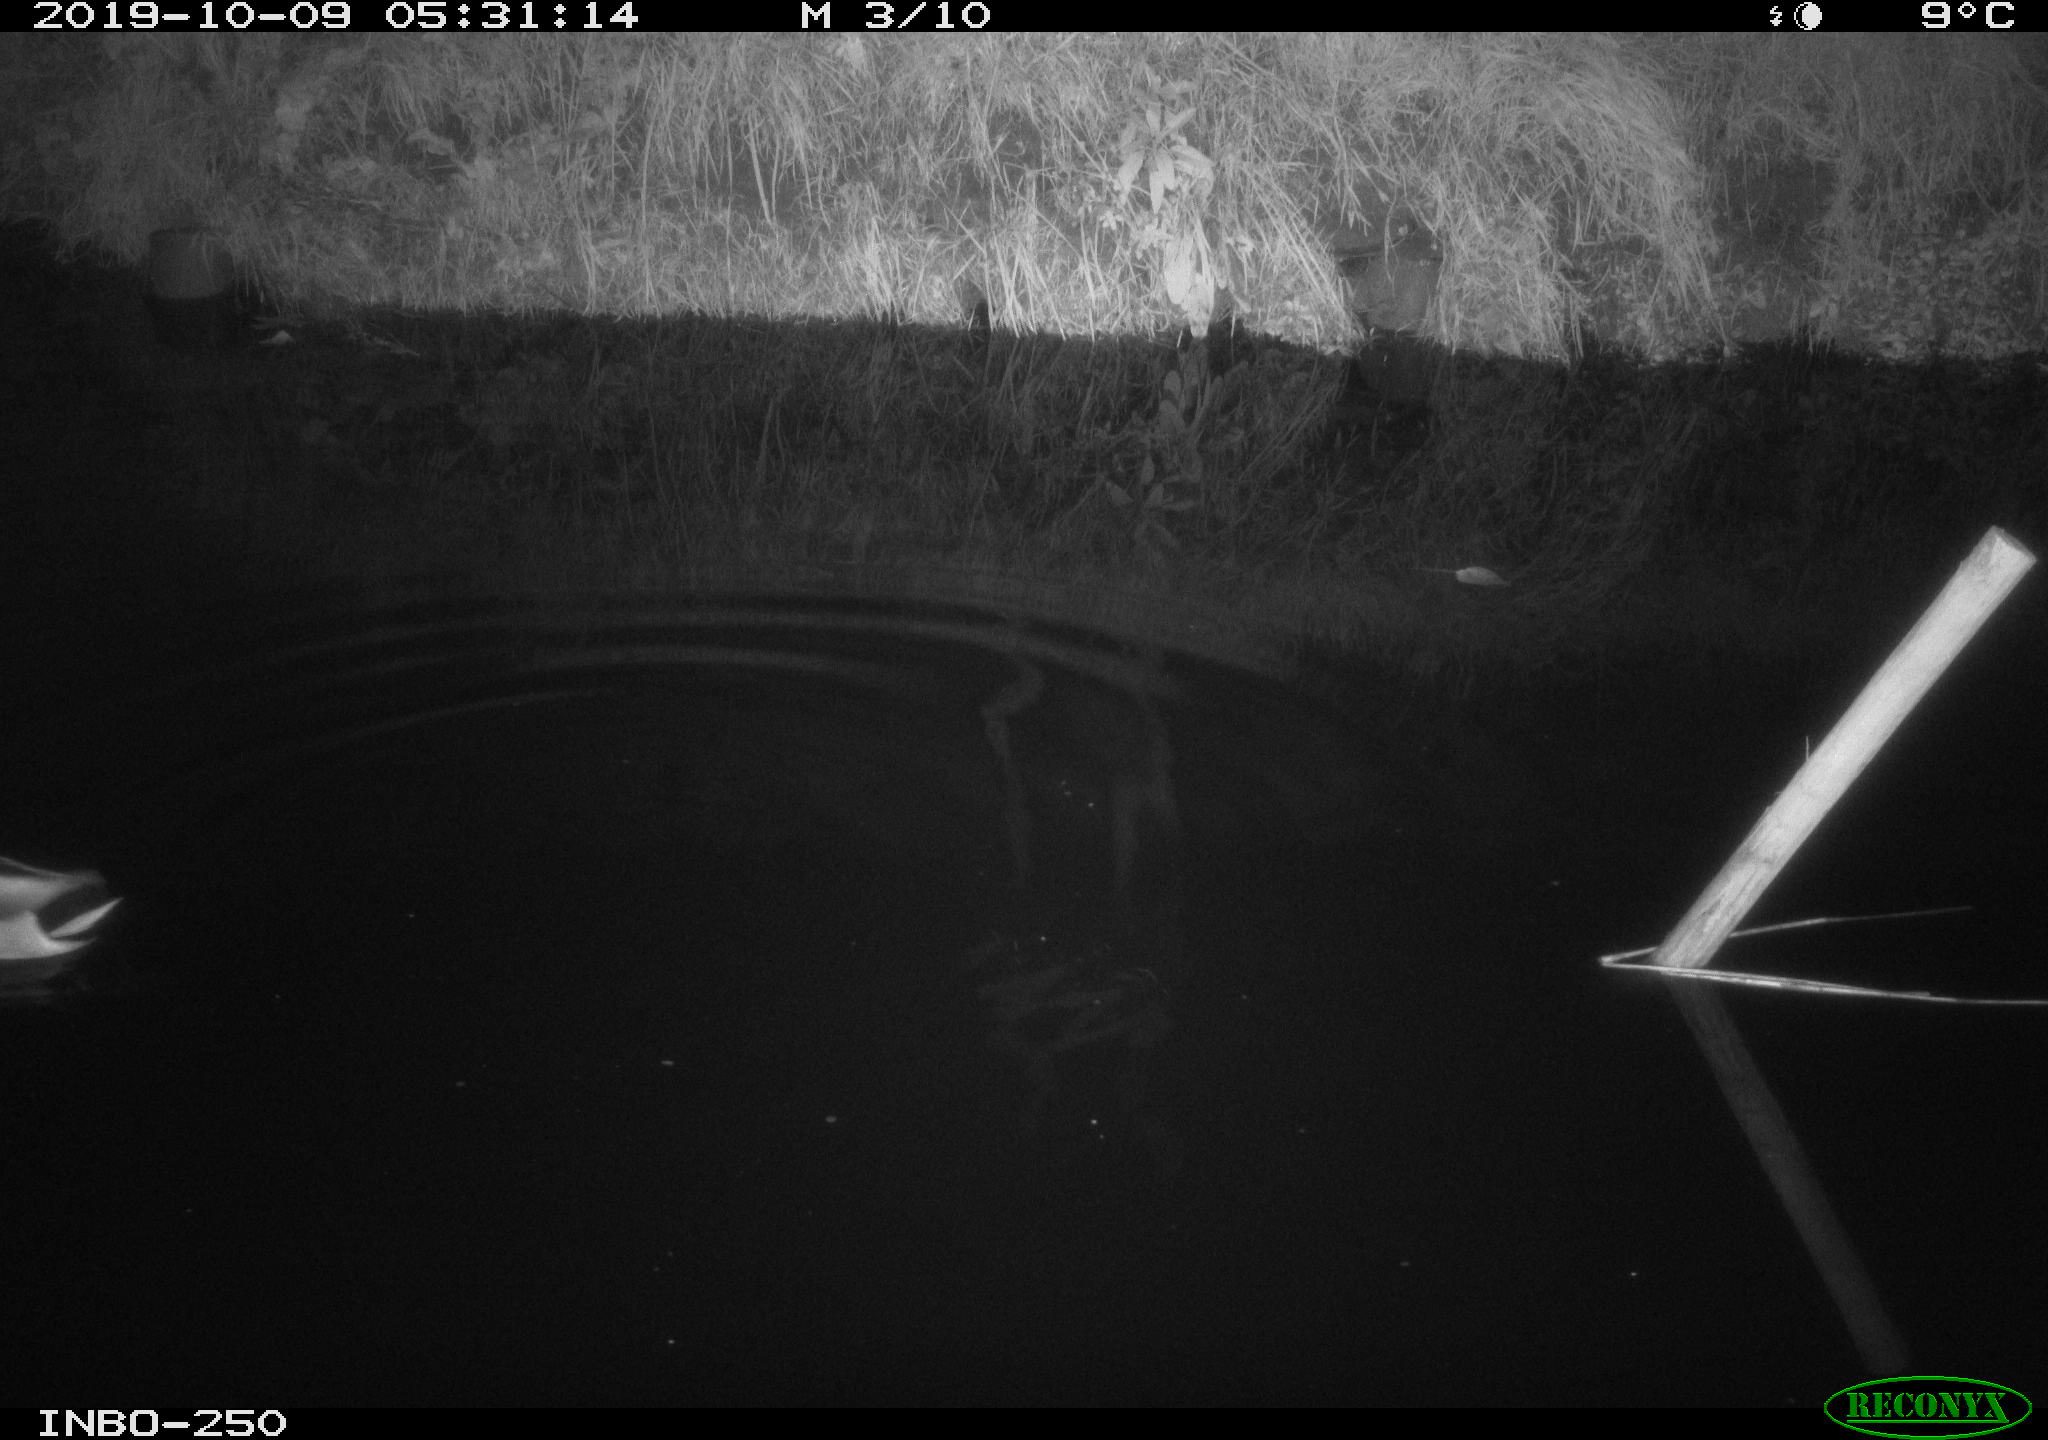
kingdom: Animalia
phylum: Chordata
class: Aves
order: Anseriformes
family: Anatidae
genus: Anas
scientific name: Anas platyrhynchos
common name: Mallard
